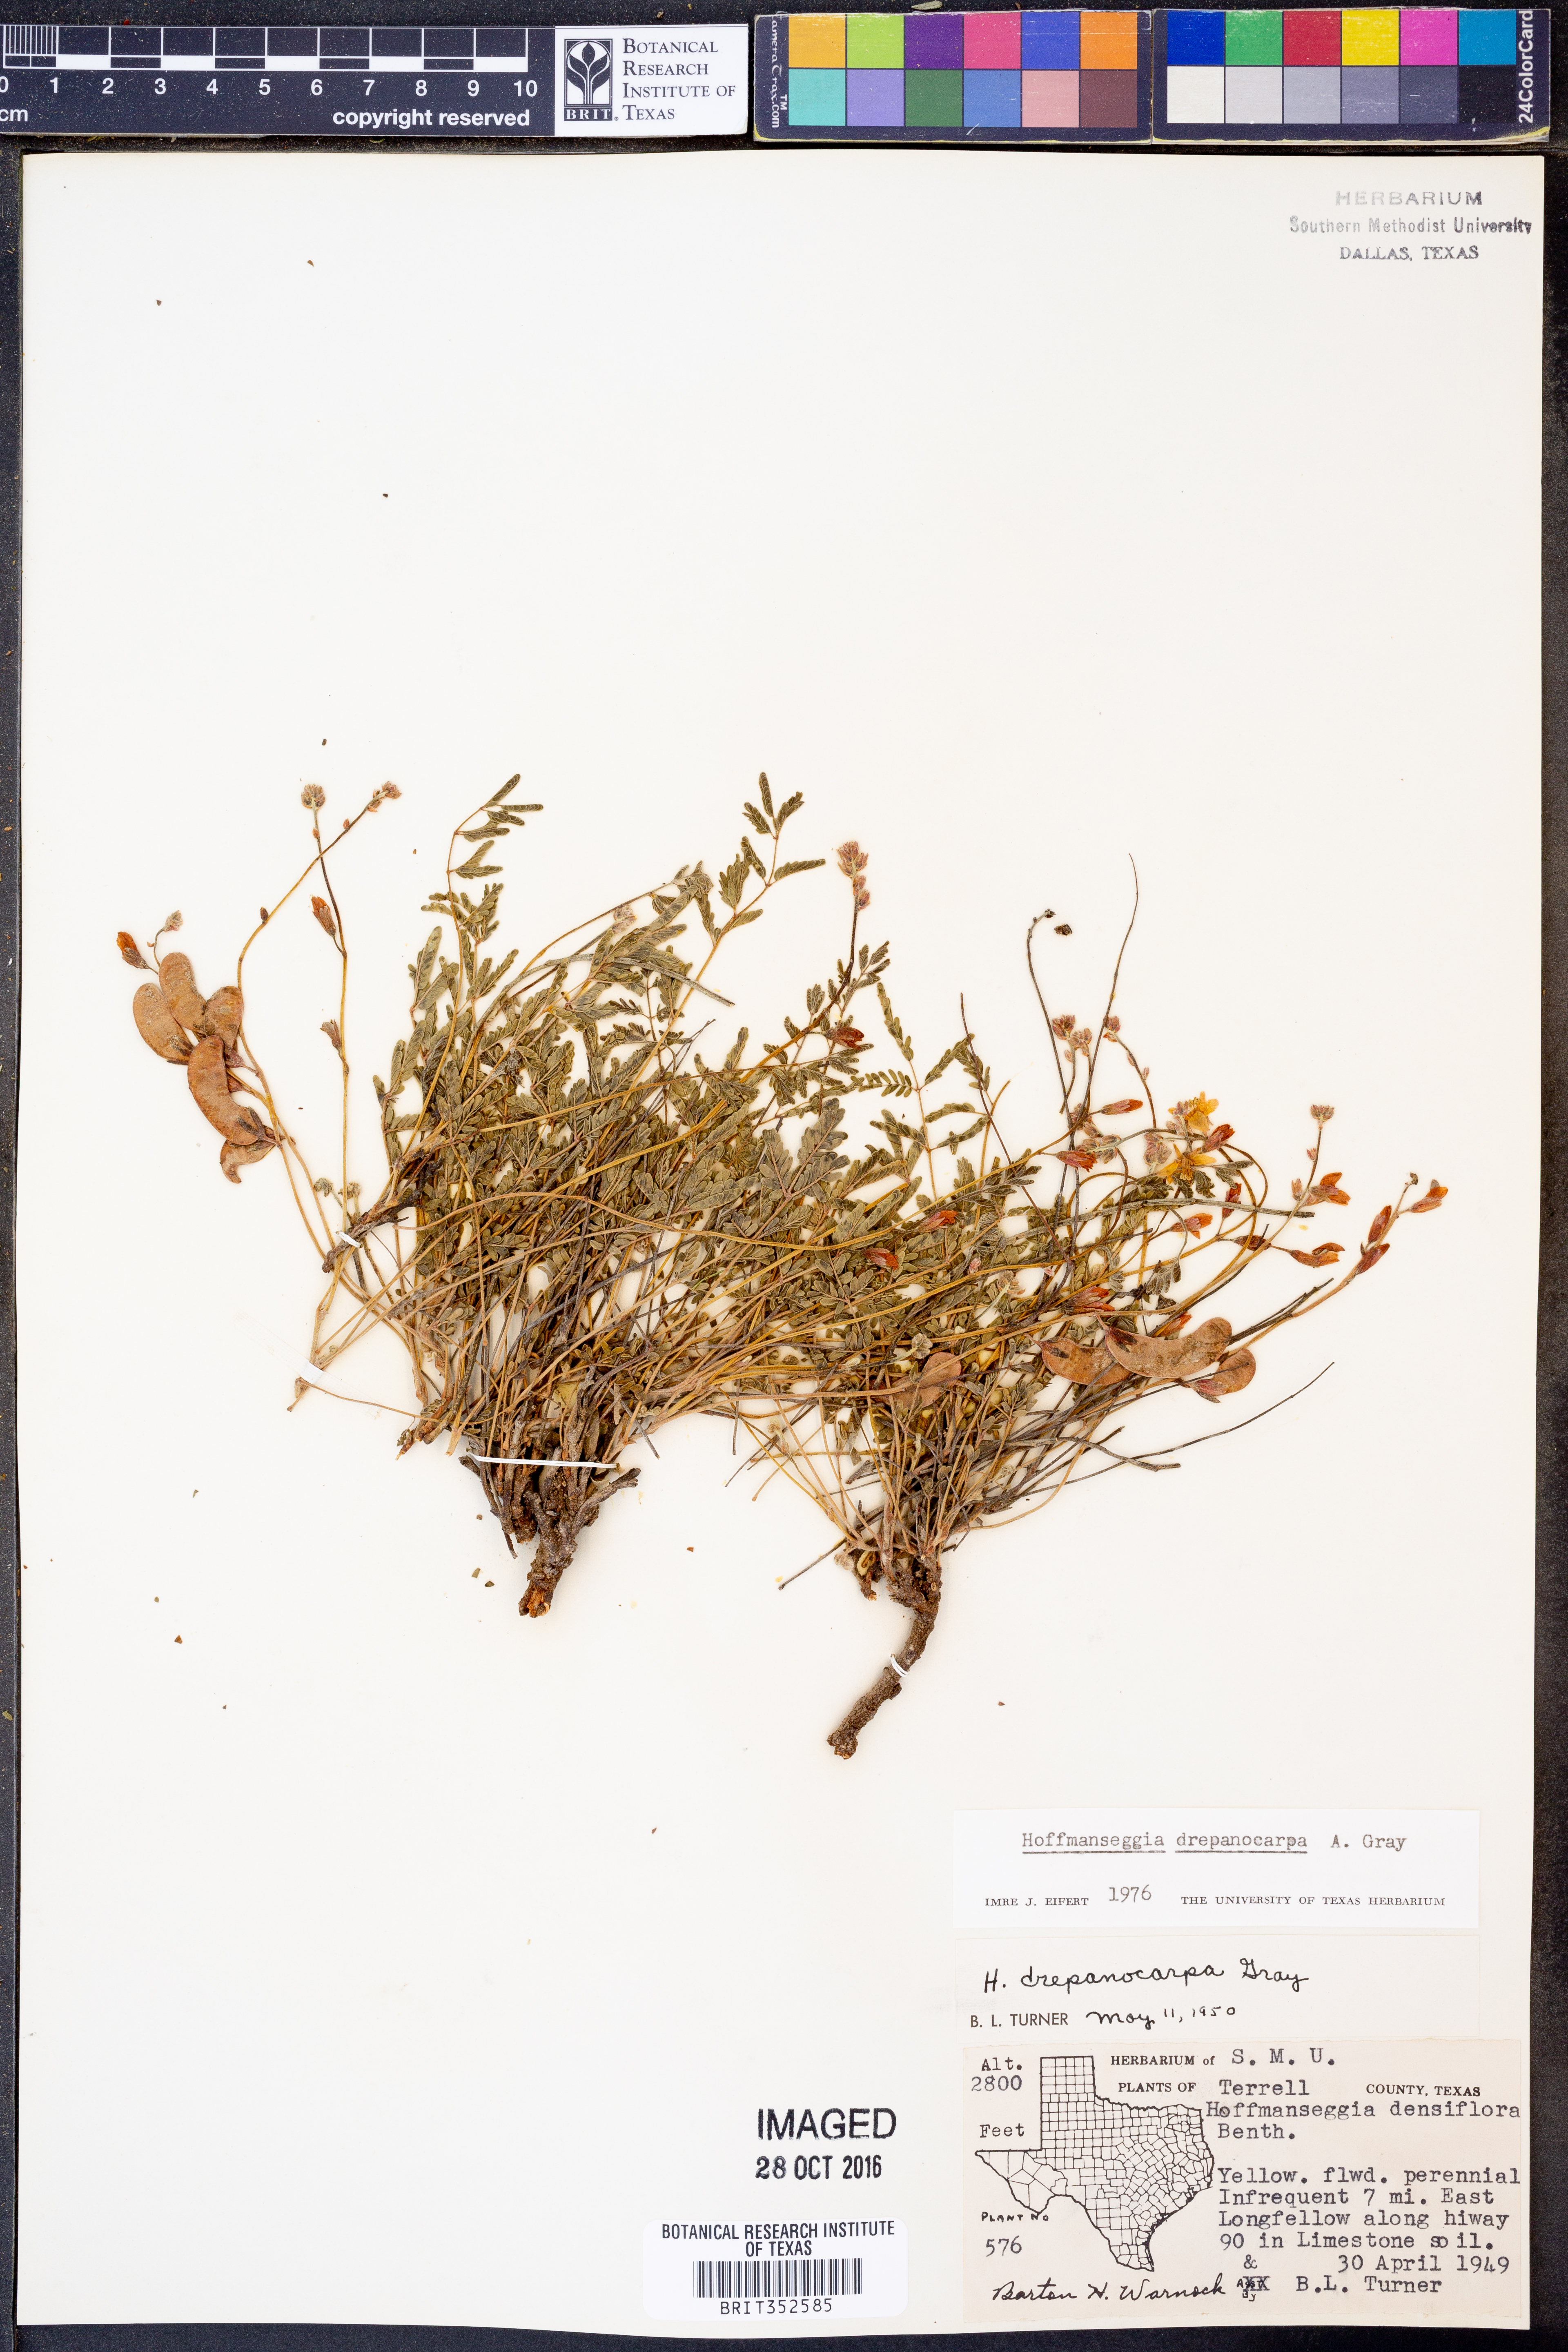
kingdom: Plantae
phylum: Tracheophyta
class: Magnoliopsida
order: Fabales
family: Fabaceae
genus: Hoffmannseggia
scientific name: Hoffmannseggia drepanocarpa
